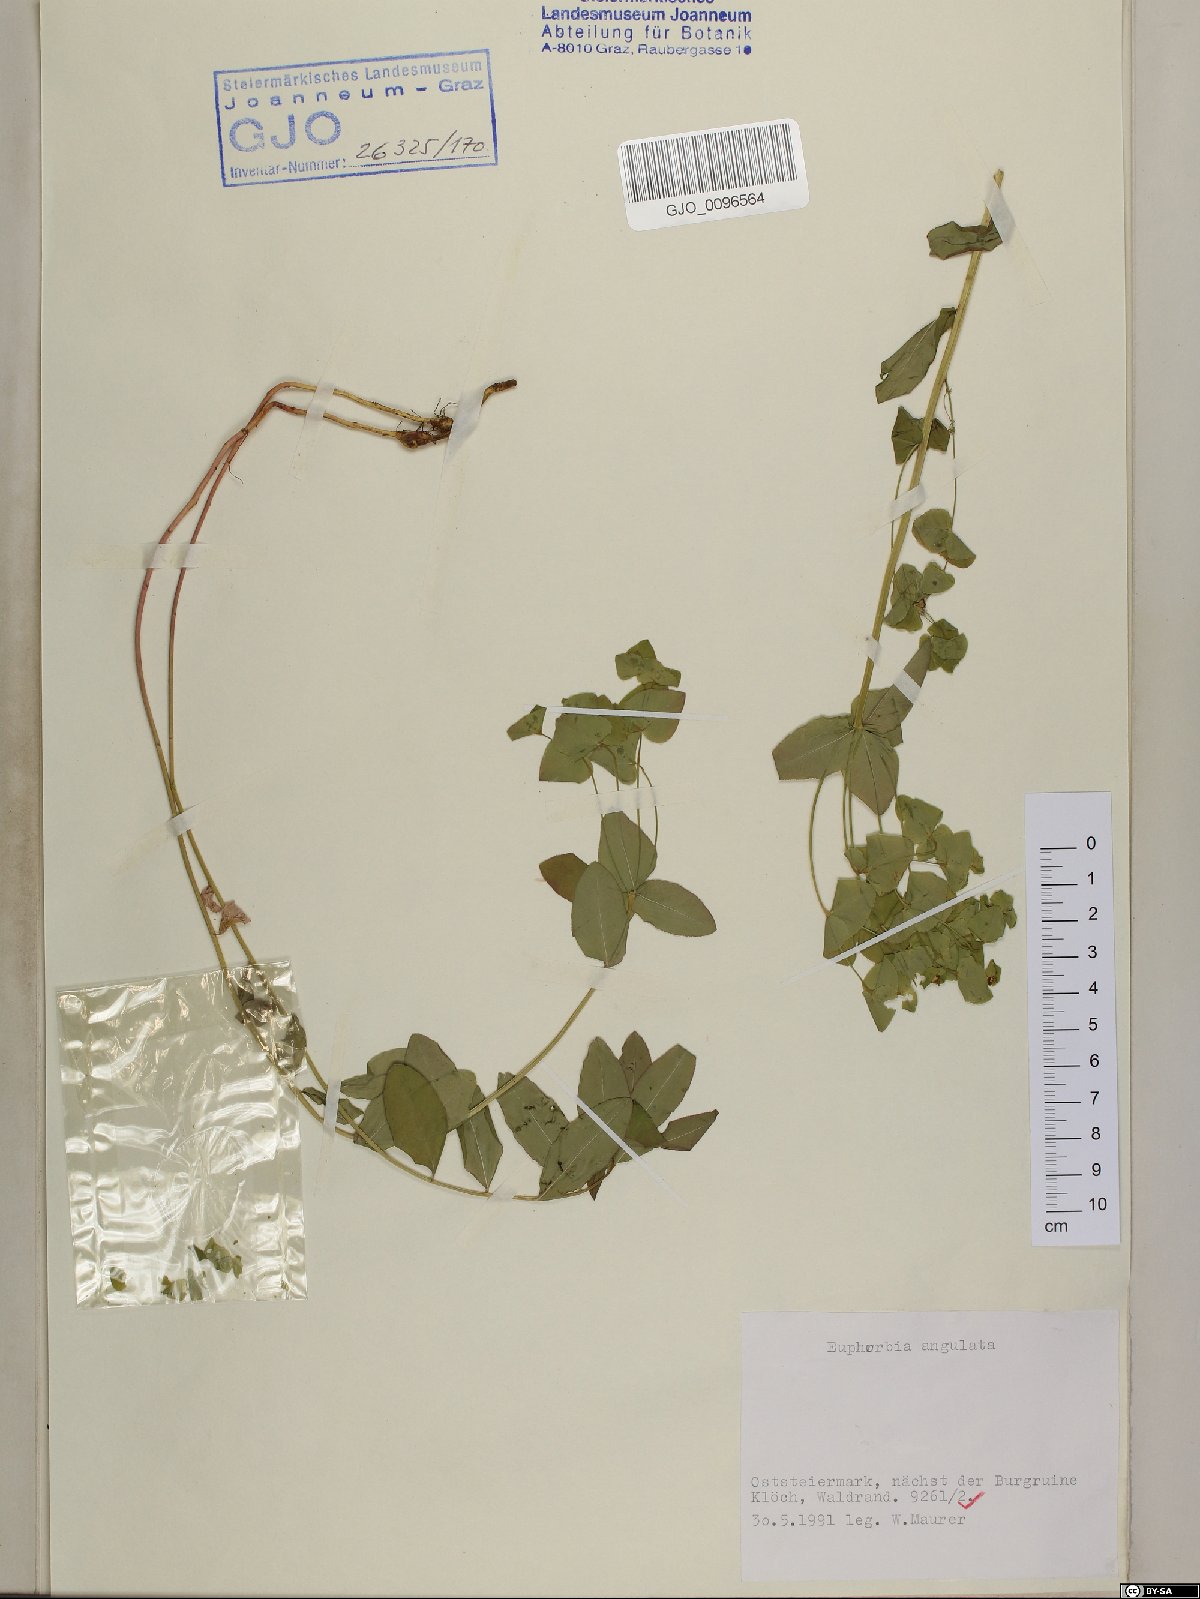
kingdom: Plantae
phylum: Tracheophyta
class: Magnoliopsida
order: Malpighiales
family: Euphorbiaceae
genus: Euphorbia
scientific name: Euphorbia angulata
